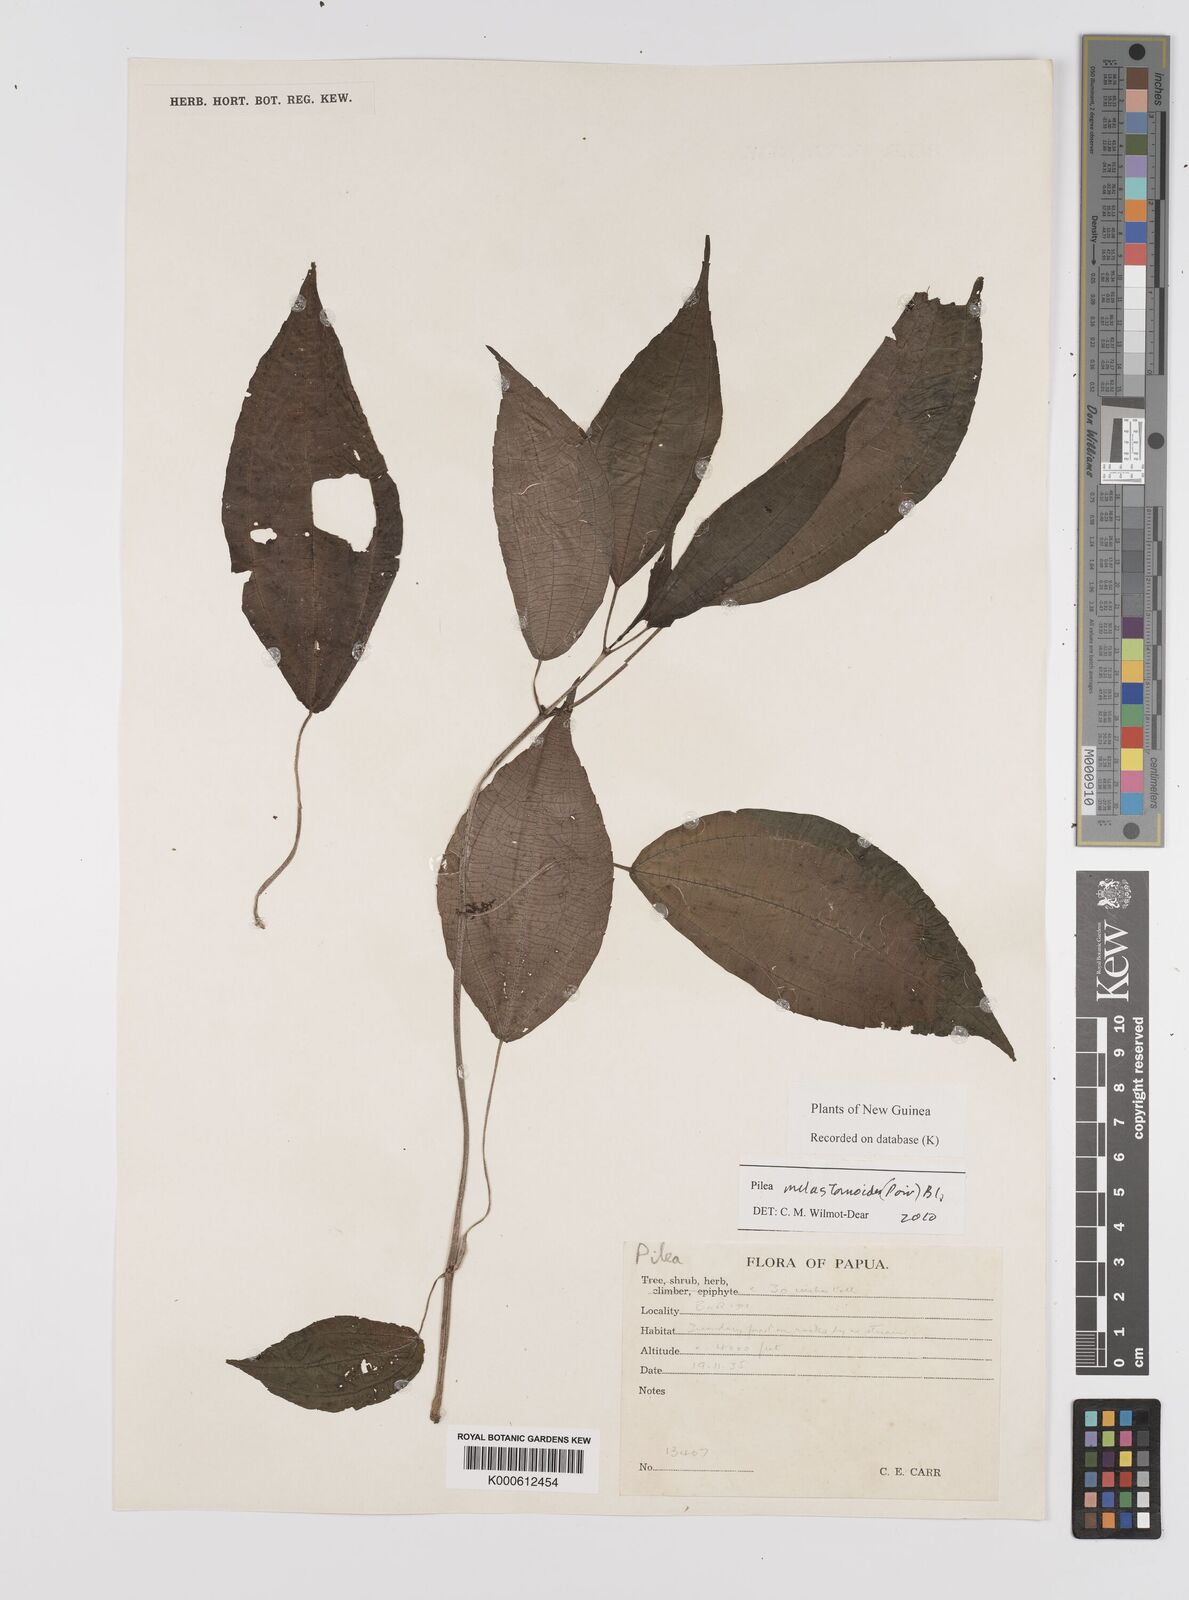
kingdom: Plantae
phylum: Tracheophyta
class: Magnoliopsida
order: Rosales
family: Urticaceae
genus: Pilea
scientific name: Pilea
